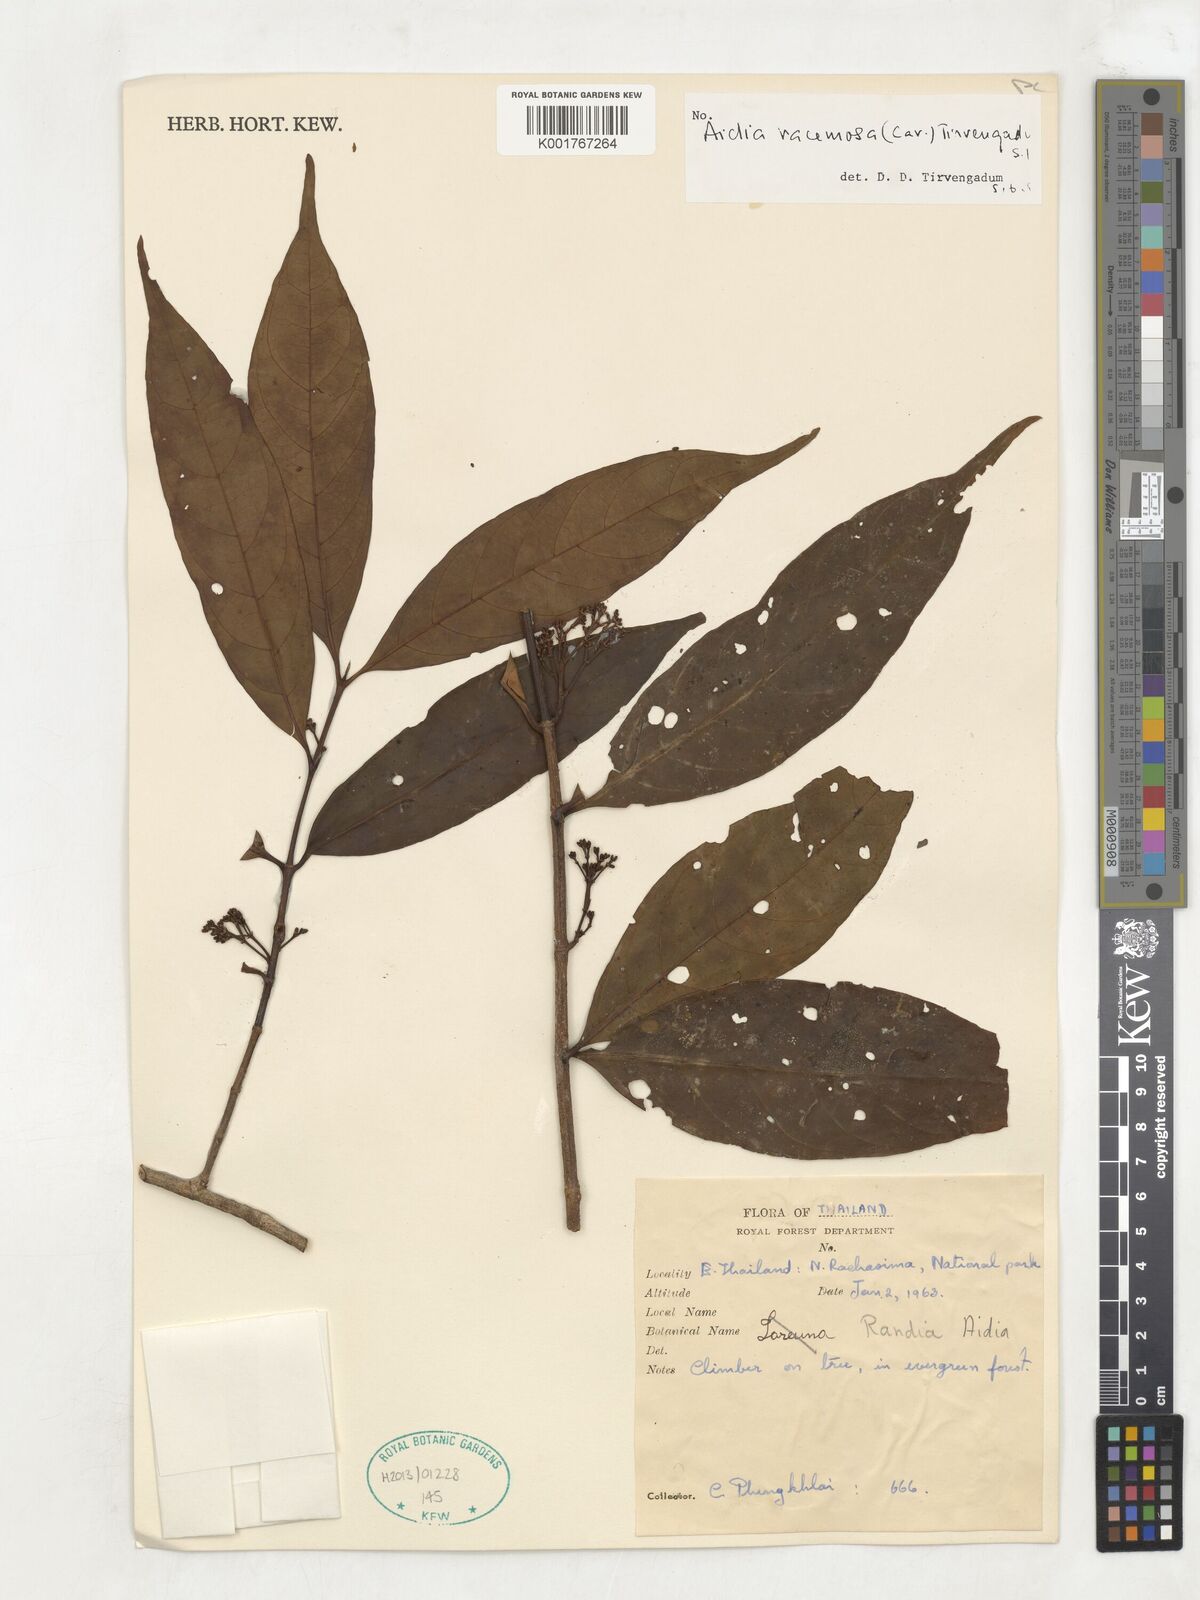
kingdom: Plantae
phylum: Tracheophyta
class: Magnoliopsida
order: Gentianales
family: Rubiaceae
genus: Aidia
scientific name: Aidia racemosa
